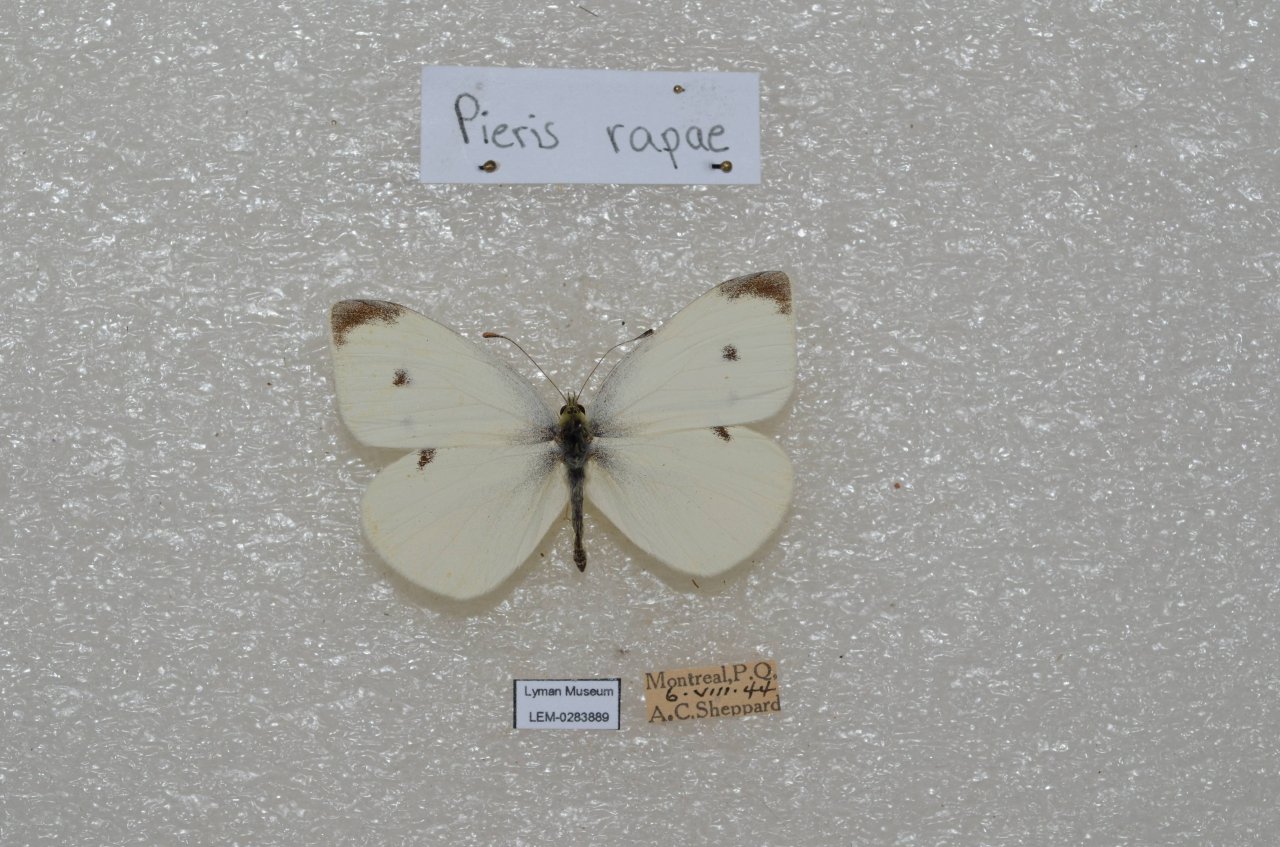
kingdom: Animalia
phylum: Arthropoda
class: Insecta
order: Lepidoptera
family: Pieridae
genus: Pieris
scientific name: Pieris rapae
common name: Cabbage White
